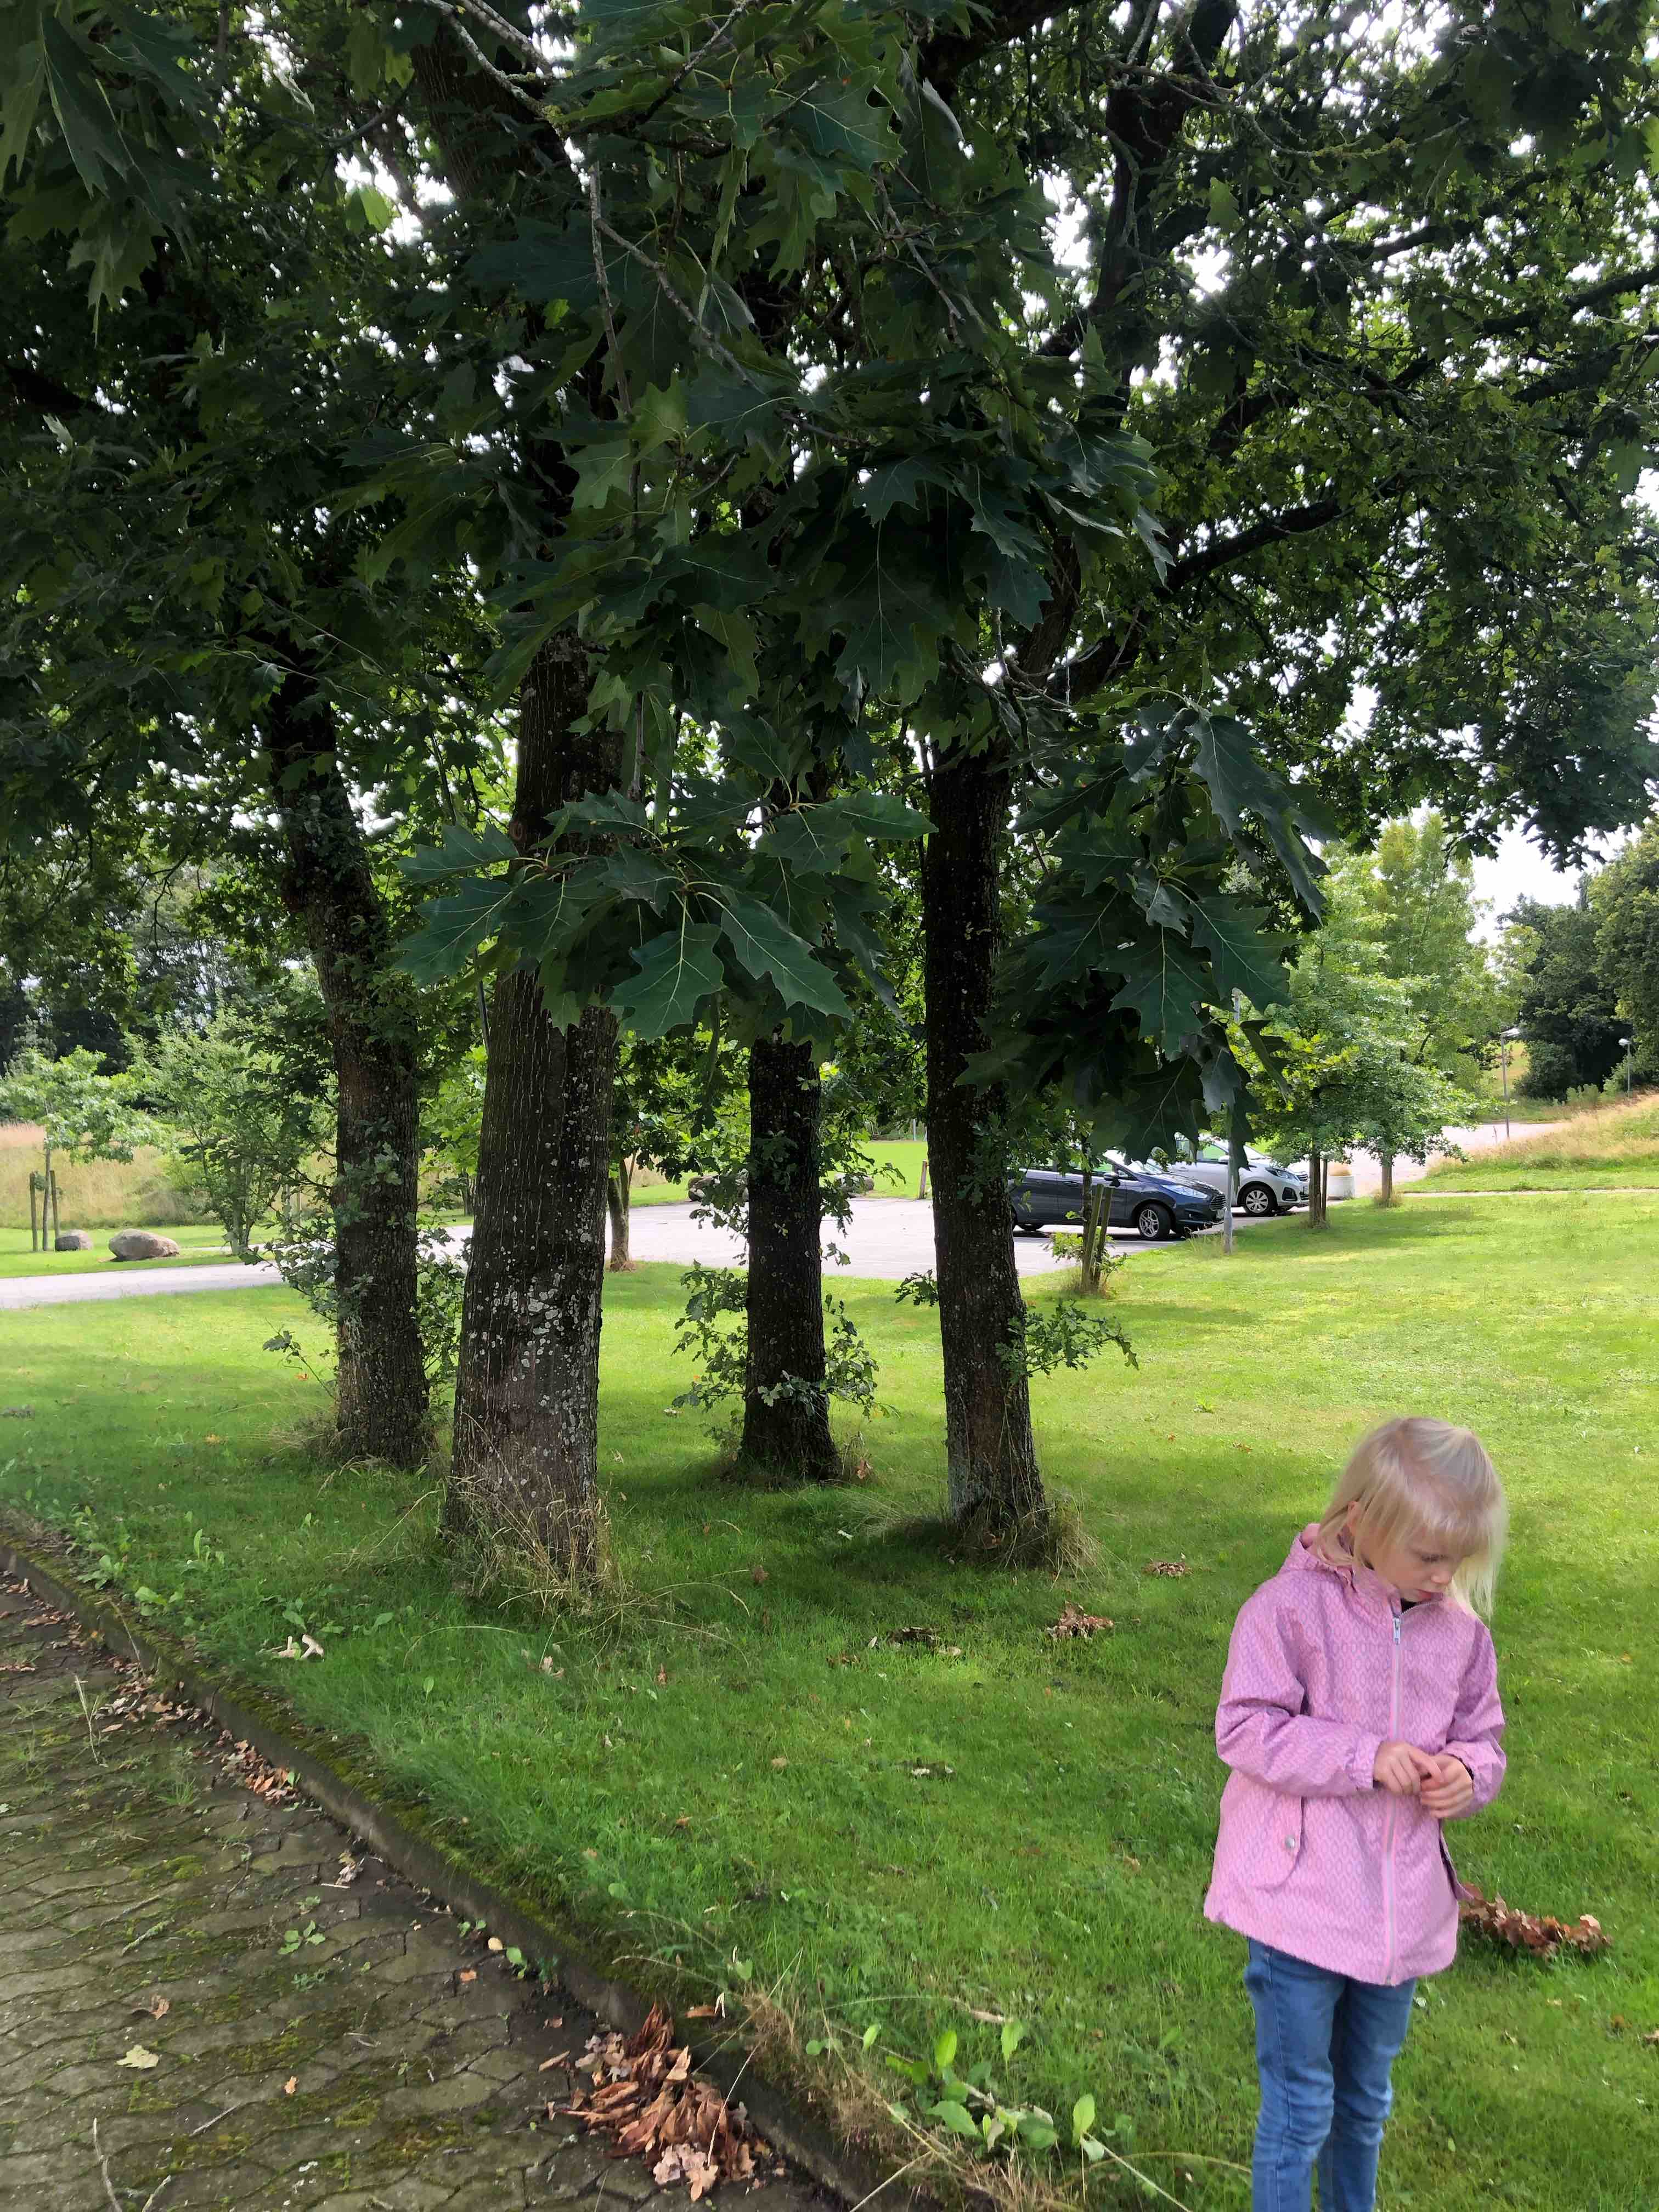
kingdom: Fungi
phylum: Basidiomycota
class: Agaricomycetes
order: Agaricales
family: Entolomataceae
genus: Entoloma
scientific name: Entoloma lividoalbum
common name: lysstokket rødblad
